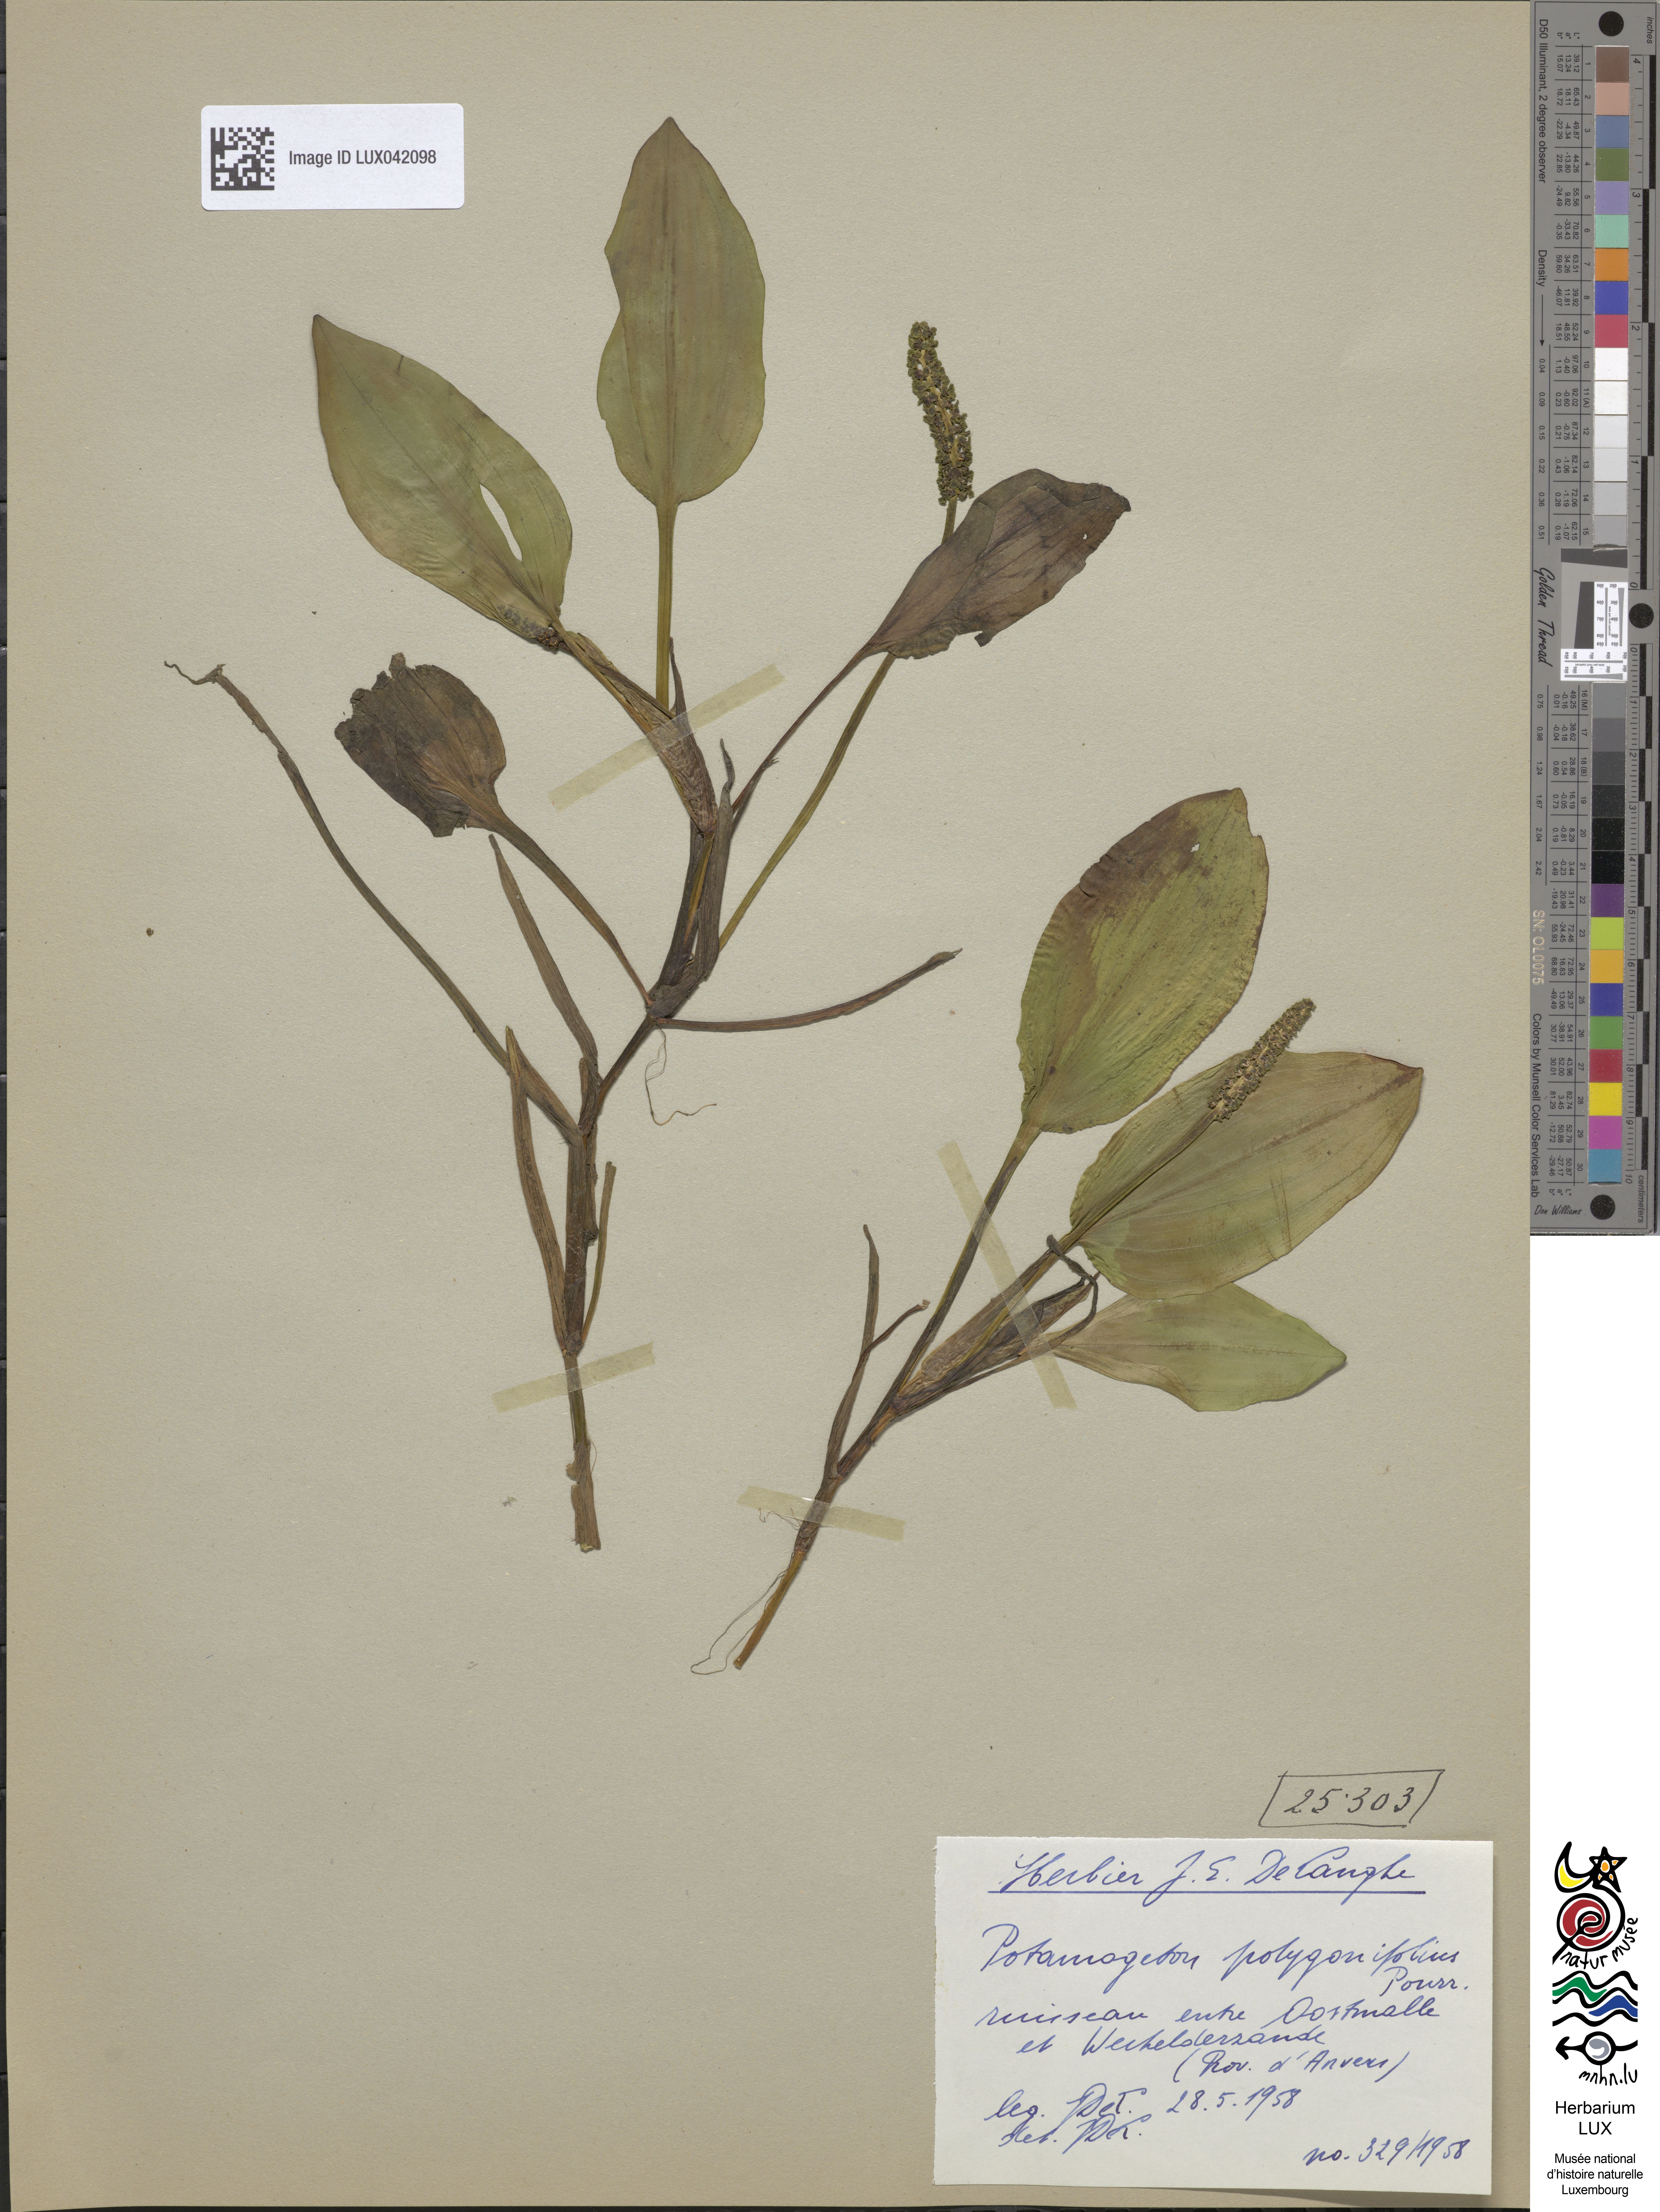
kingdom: Plantae
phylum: Tracheophyta
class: Liliopsida
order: Alismatales
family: Potamogetonaceae
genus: Potamogeton
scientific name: Potamogeton polygonifolius
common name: Bog pondweed
